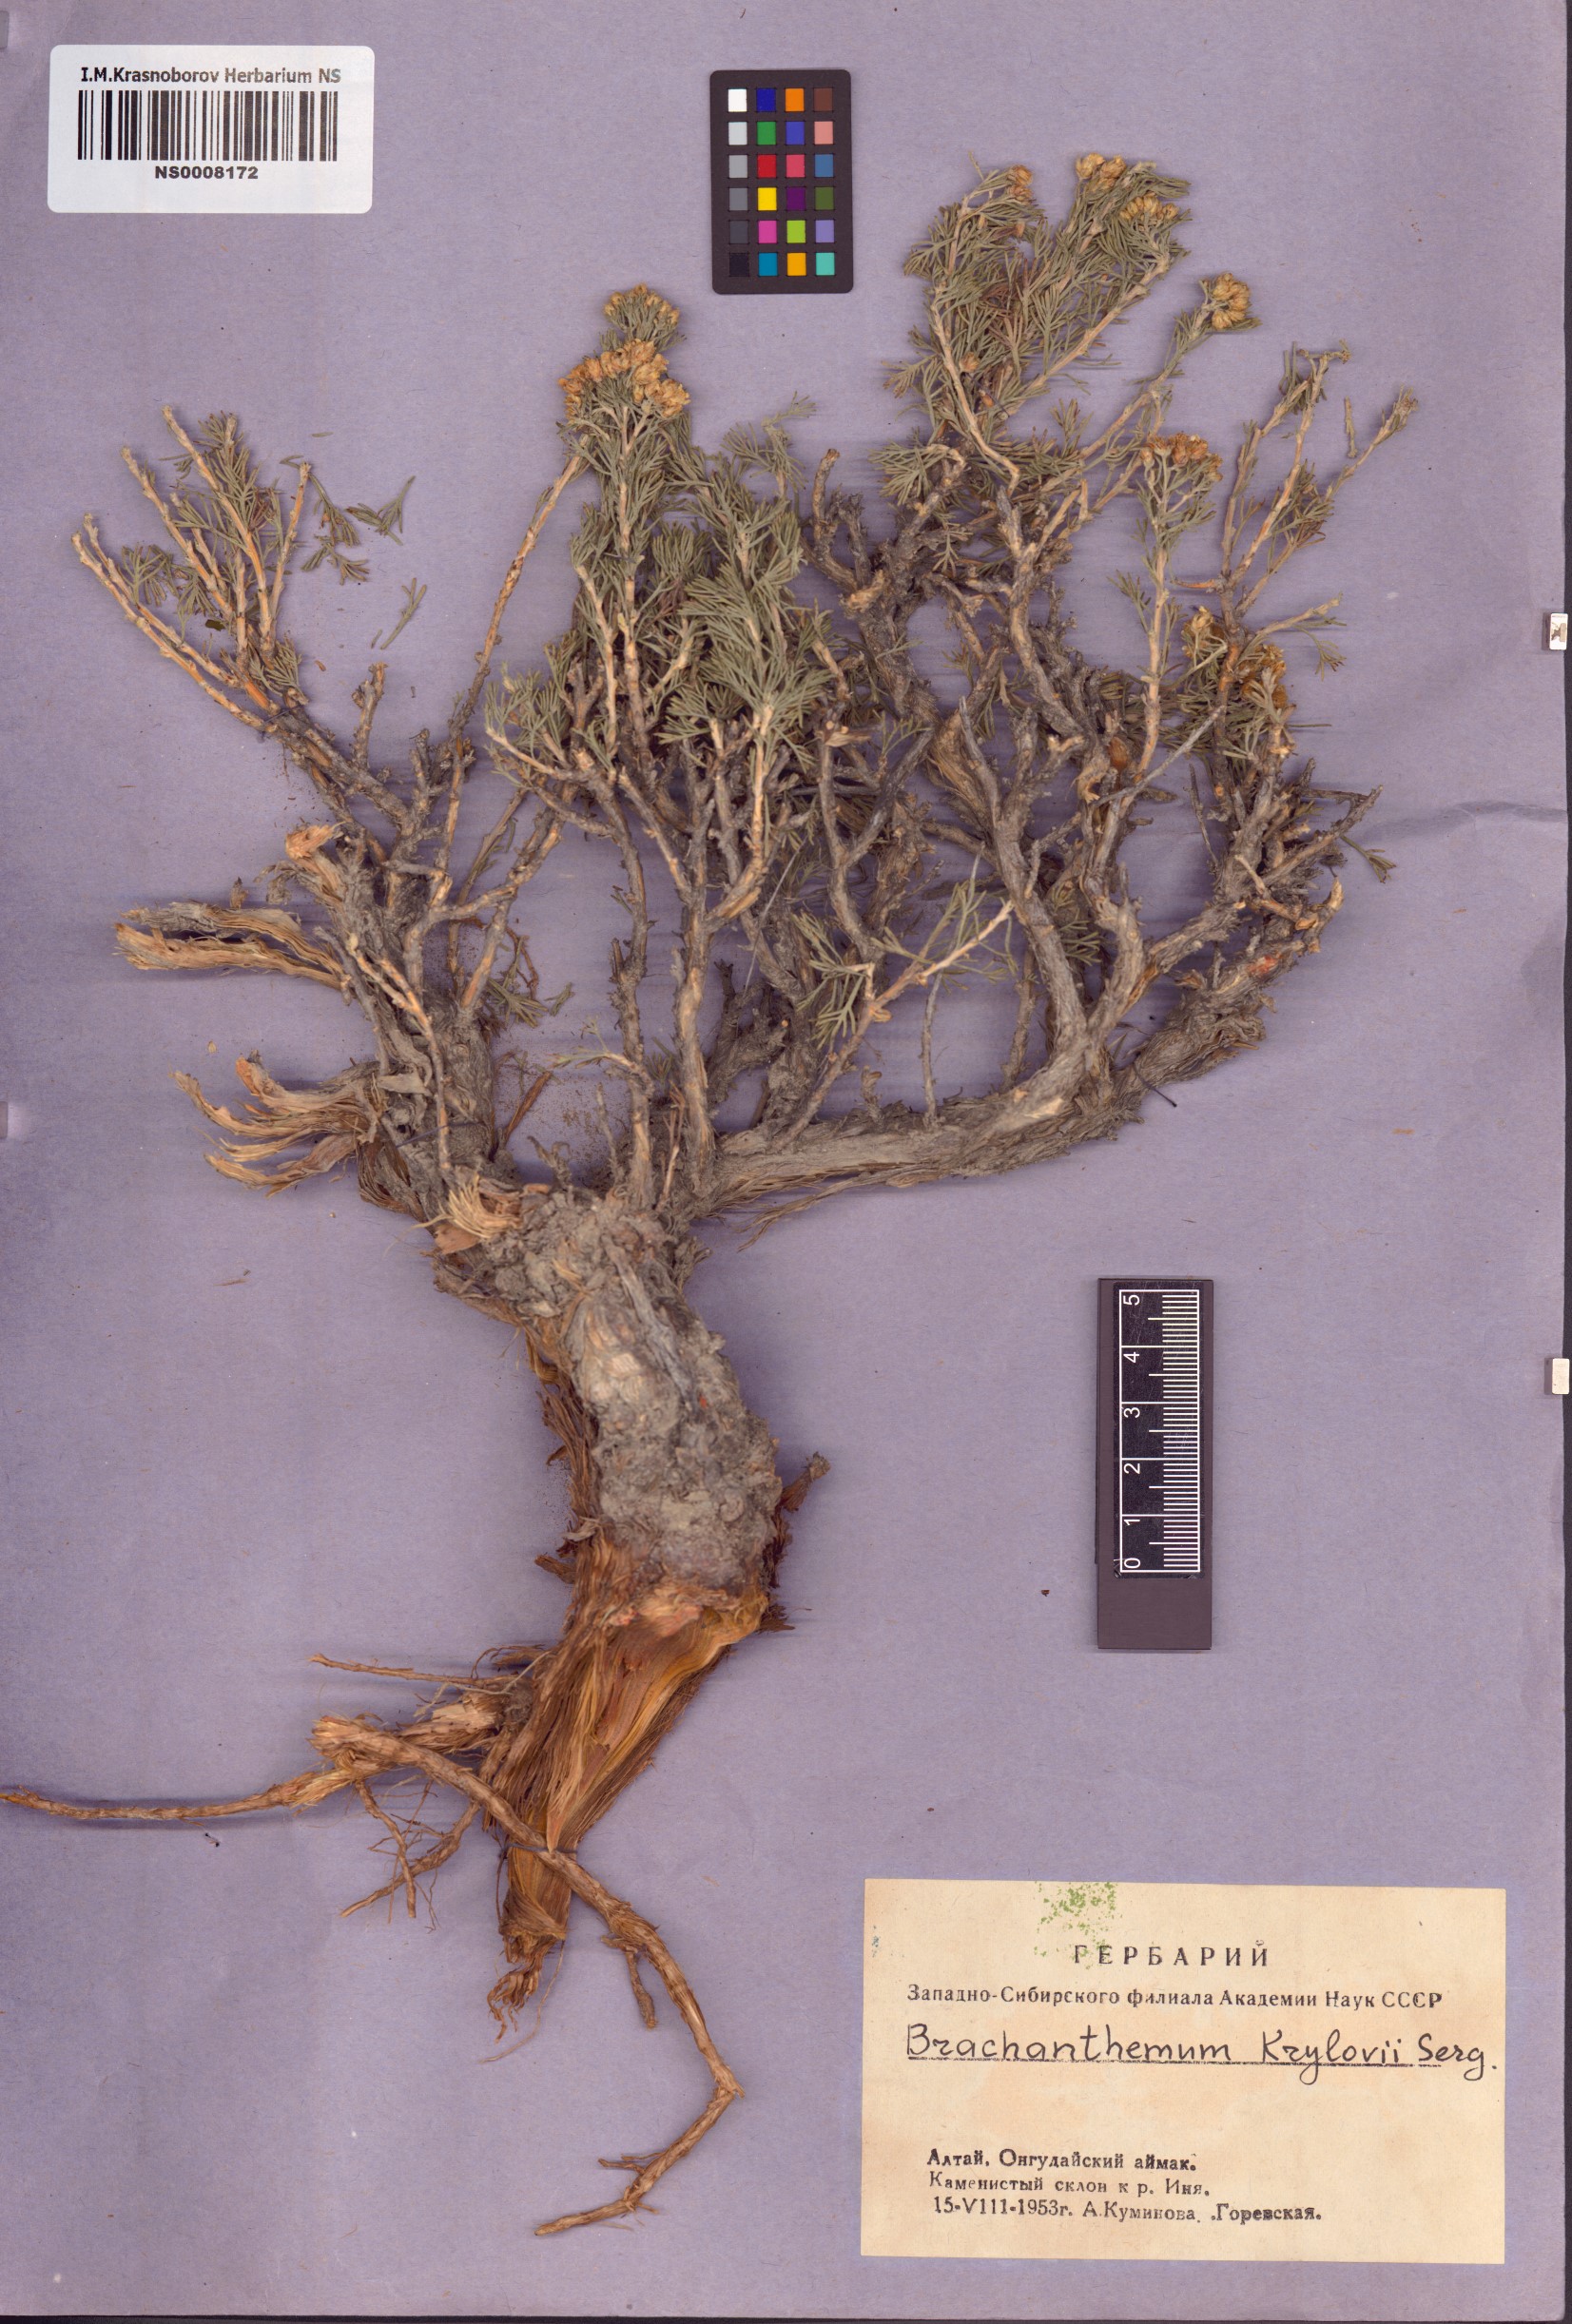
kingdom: Plantae
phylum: Tracheophyta
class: Magnoliopsida
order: Asterales
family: Asteraceae
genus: Brachanthemum
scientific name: Brachanthemum krylovii
